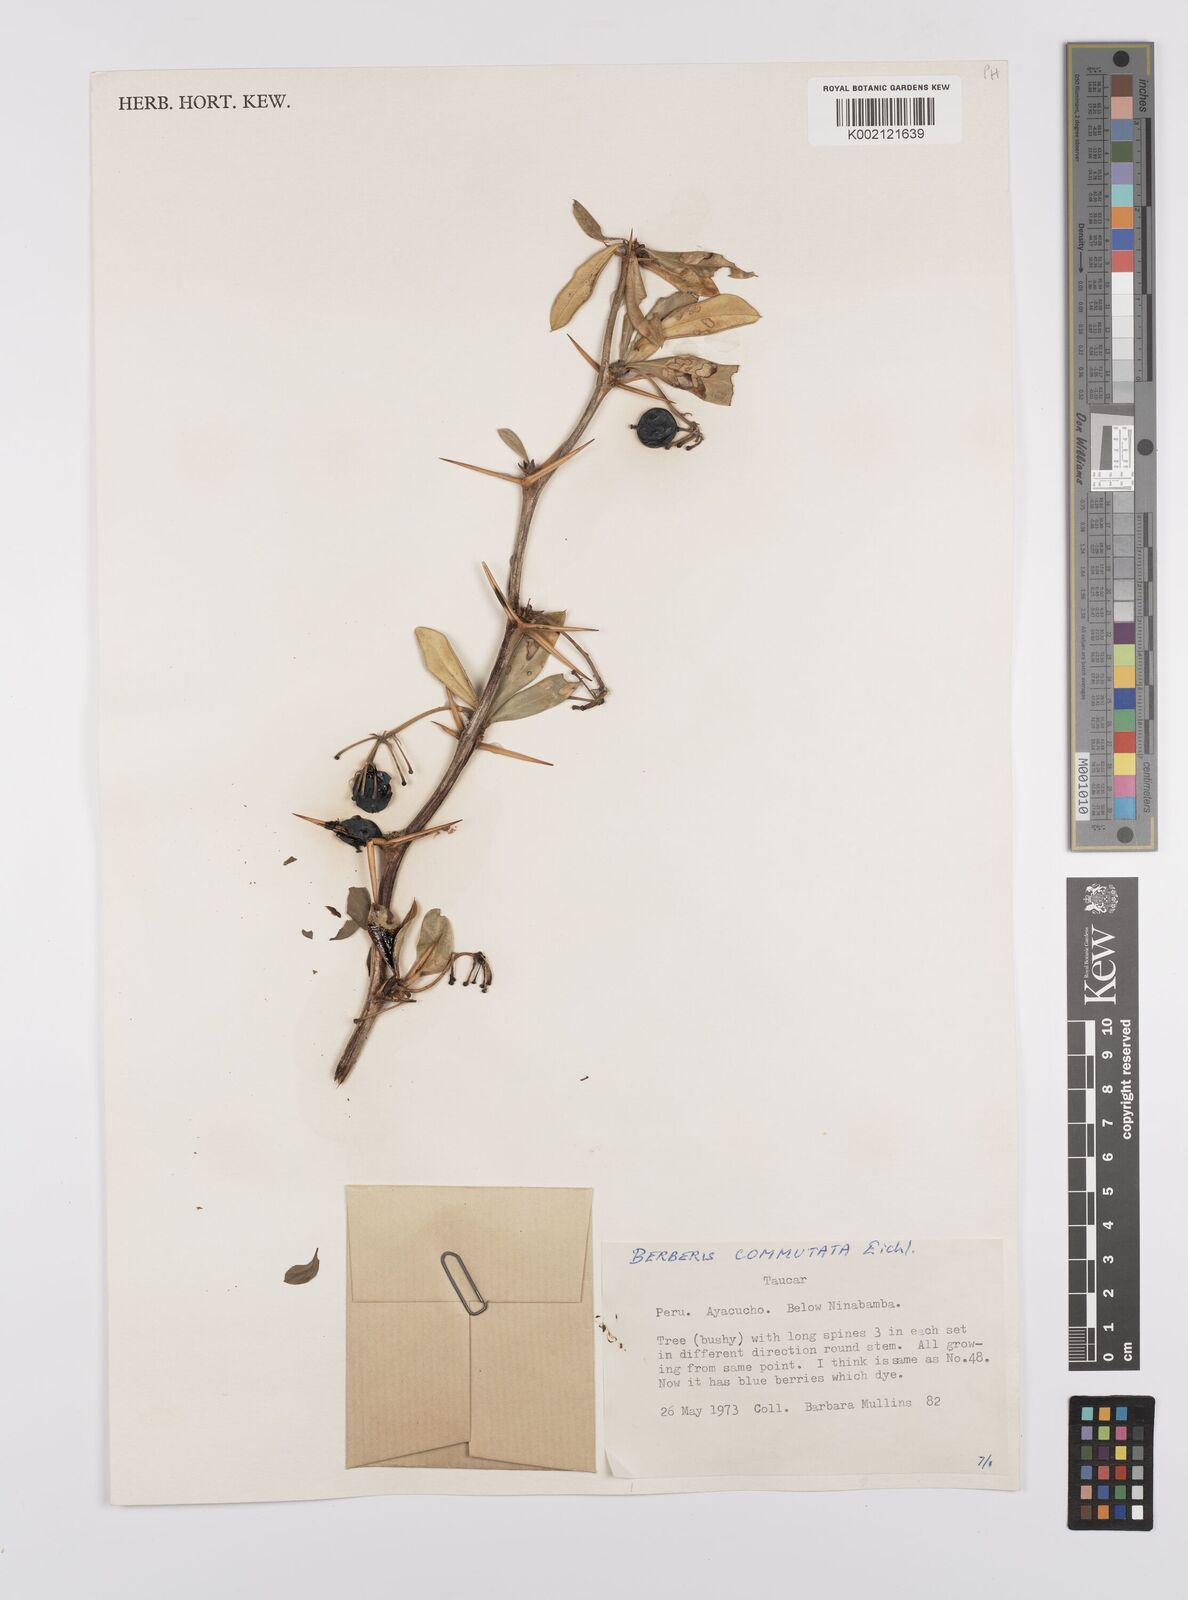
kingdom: Plantae
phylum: Tracheophyta
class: Magnoliopsida
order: Ranunculales
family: Berberidaceae
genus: Berberis
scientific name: Berberis commutata
